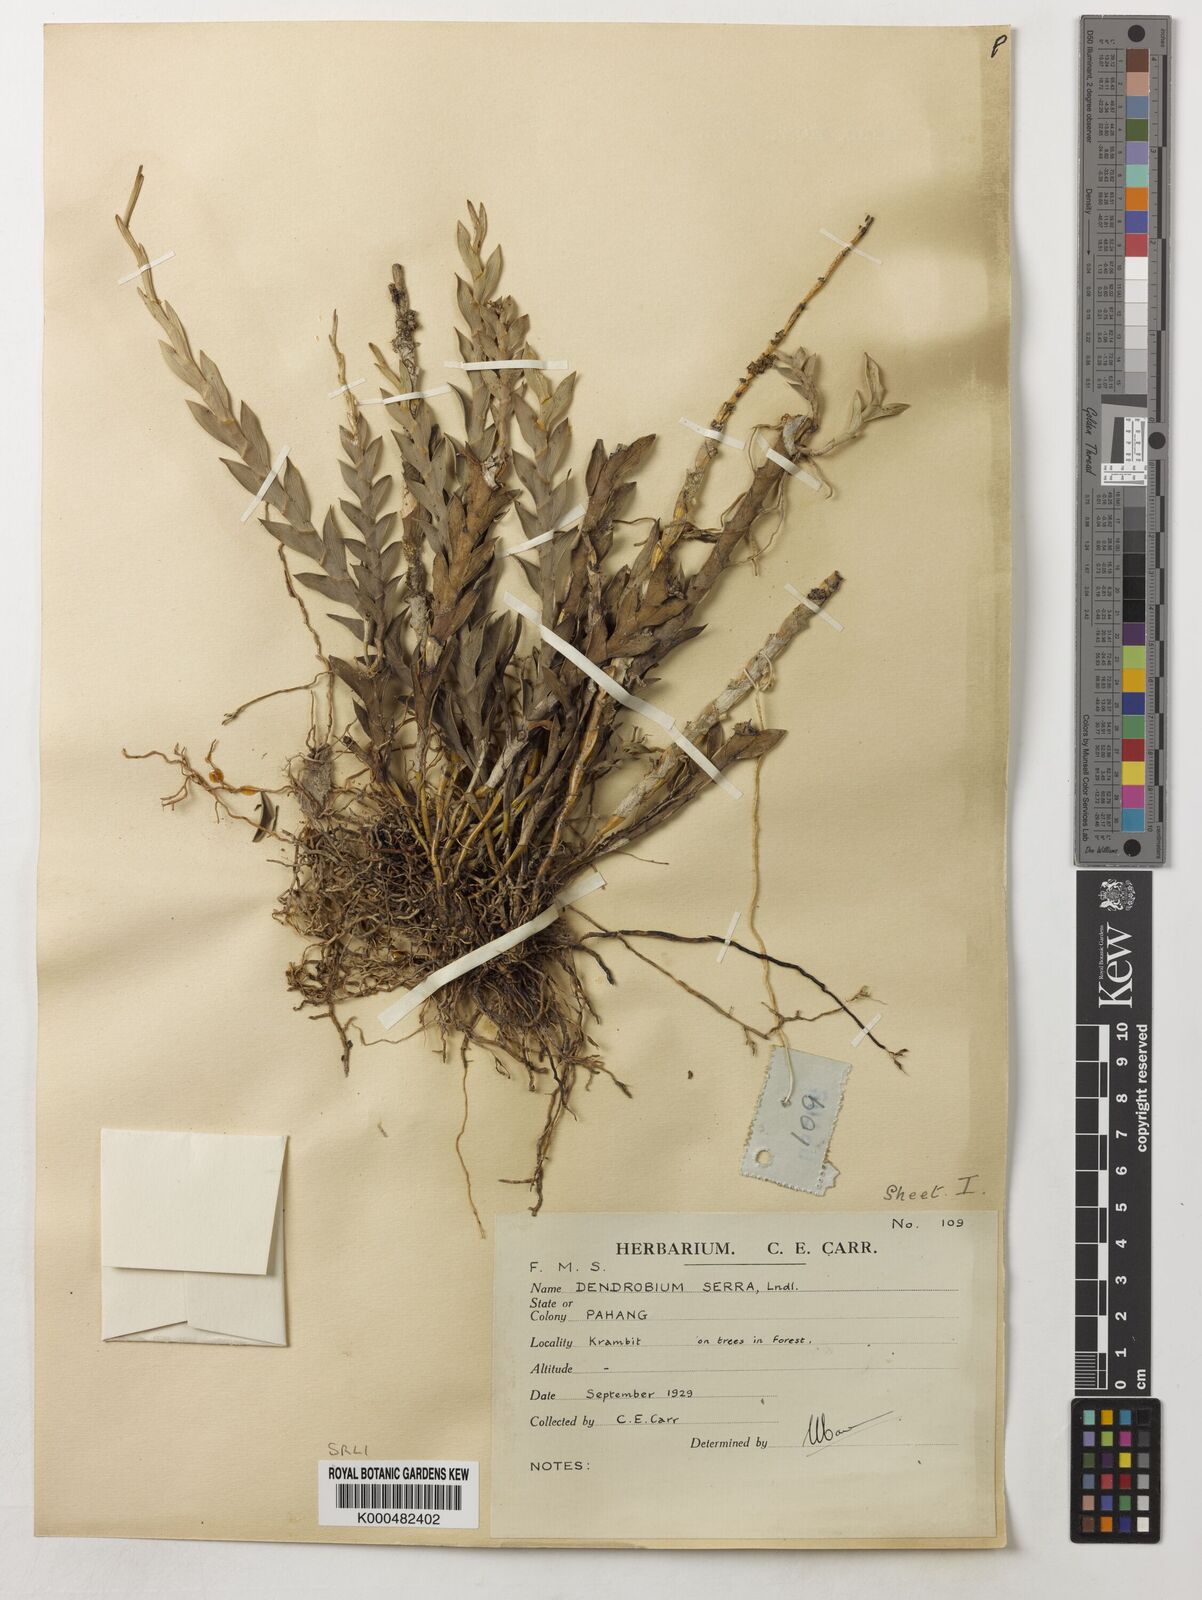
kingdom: Plantae
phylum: Tracheophyta
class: Liliopsida
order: Asparagales
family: Orchidaceae
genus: Dendrobium
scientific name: Dendrobium aloifolium
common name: Aloe-like dendrobium
